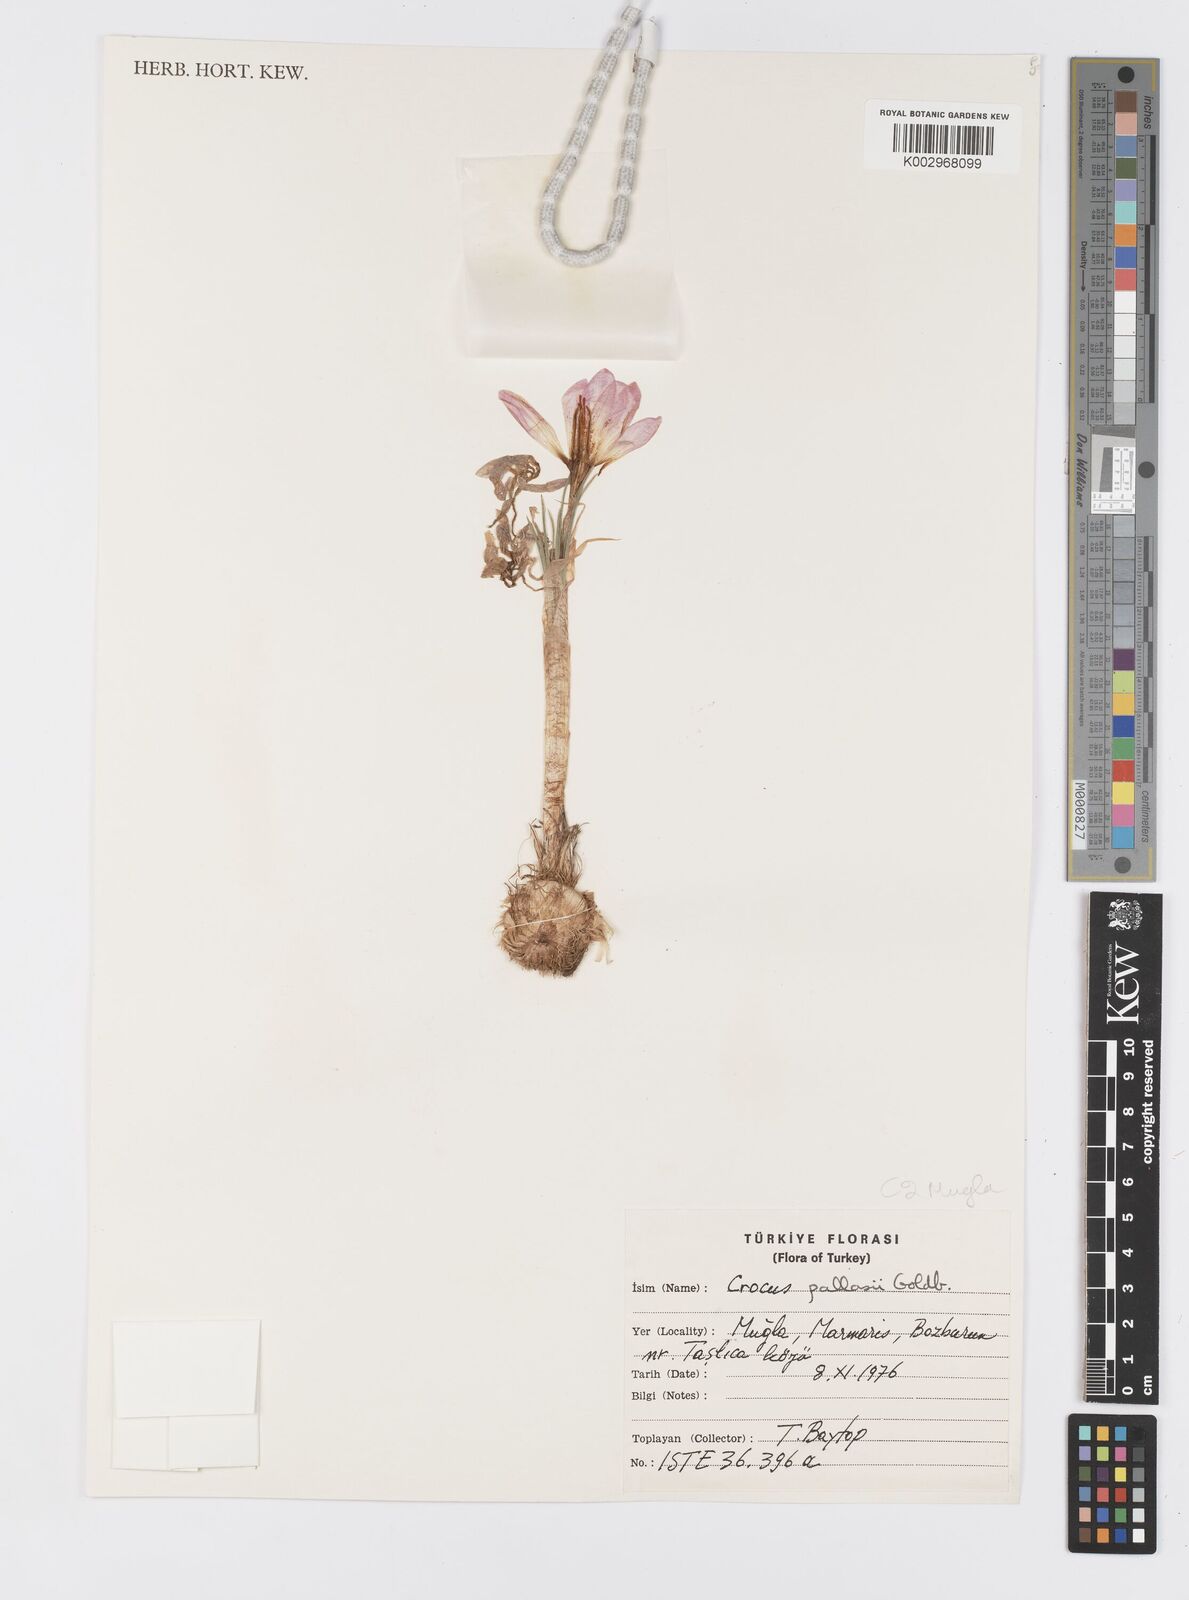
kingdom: Plantae
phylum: Tracheophyta
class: Liliopsida
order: Asparagales
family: Iridaceae
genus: Crocus
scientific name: Crocus
